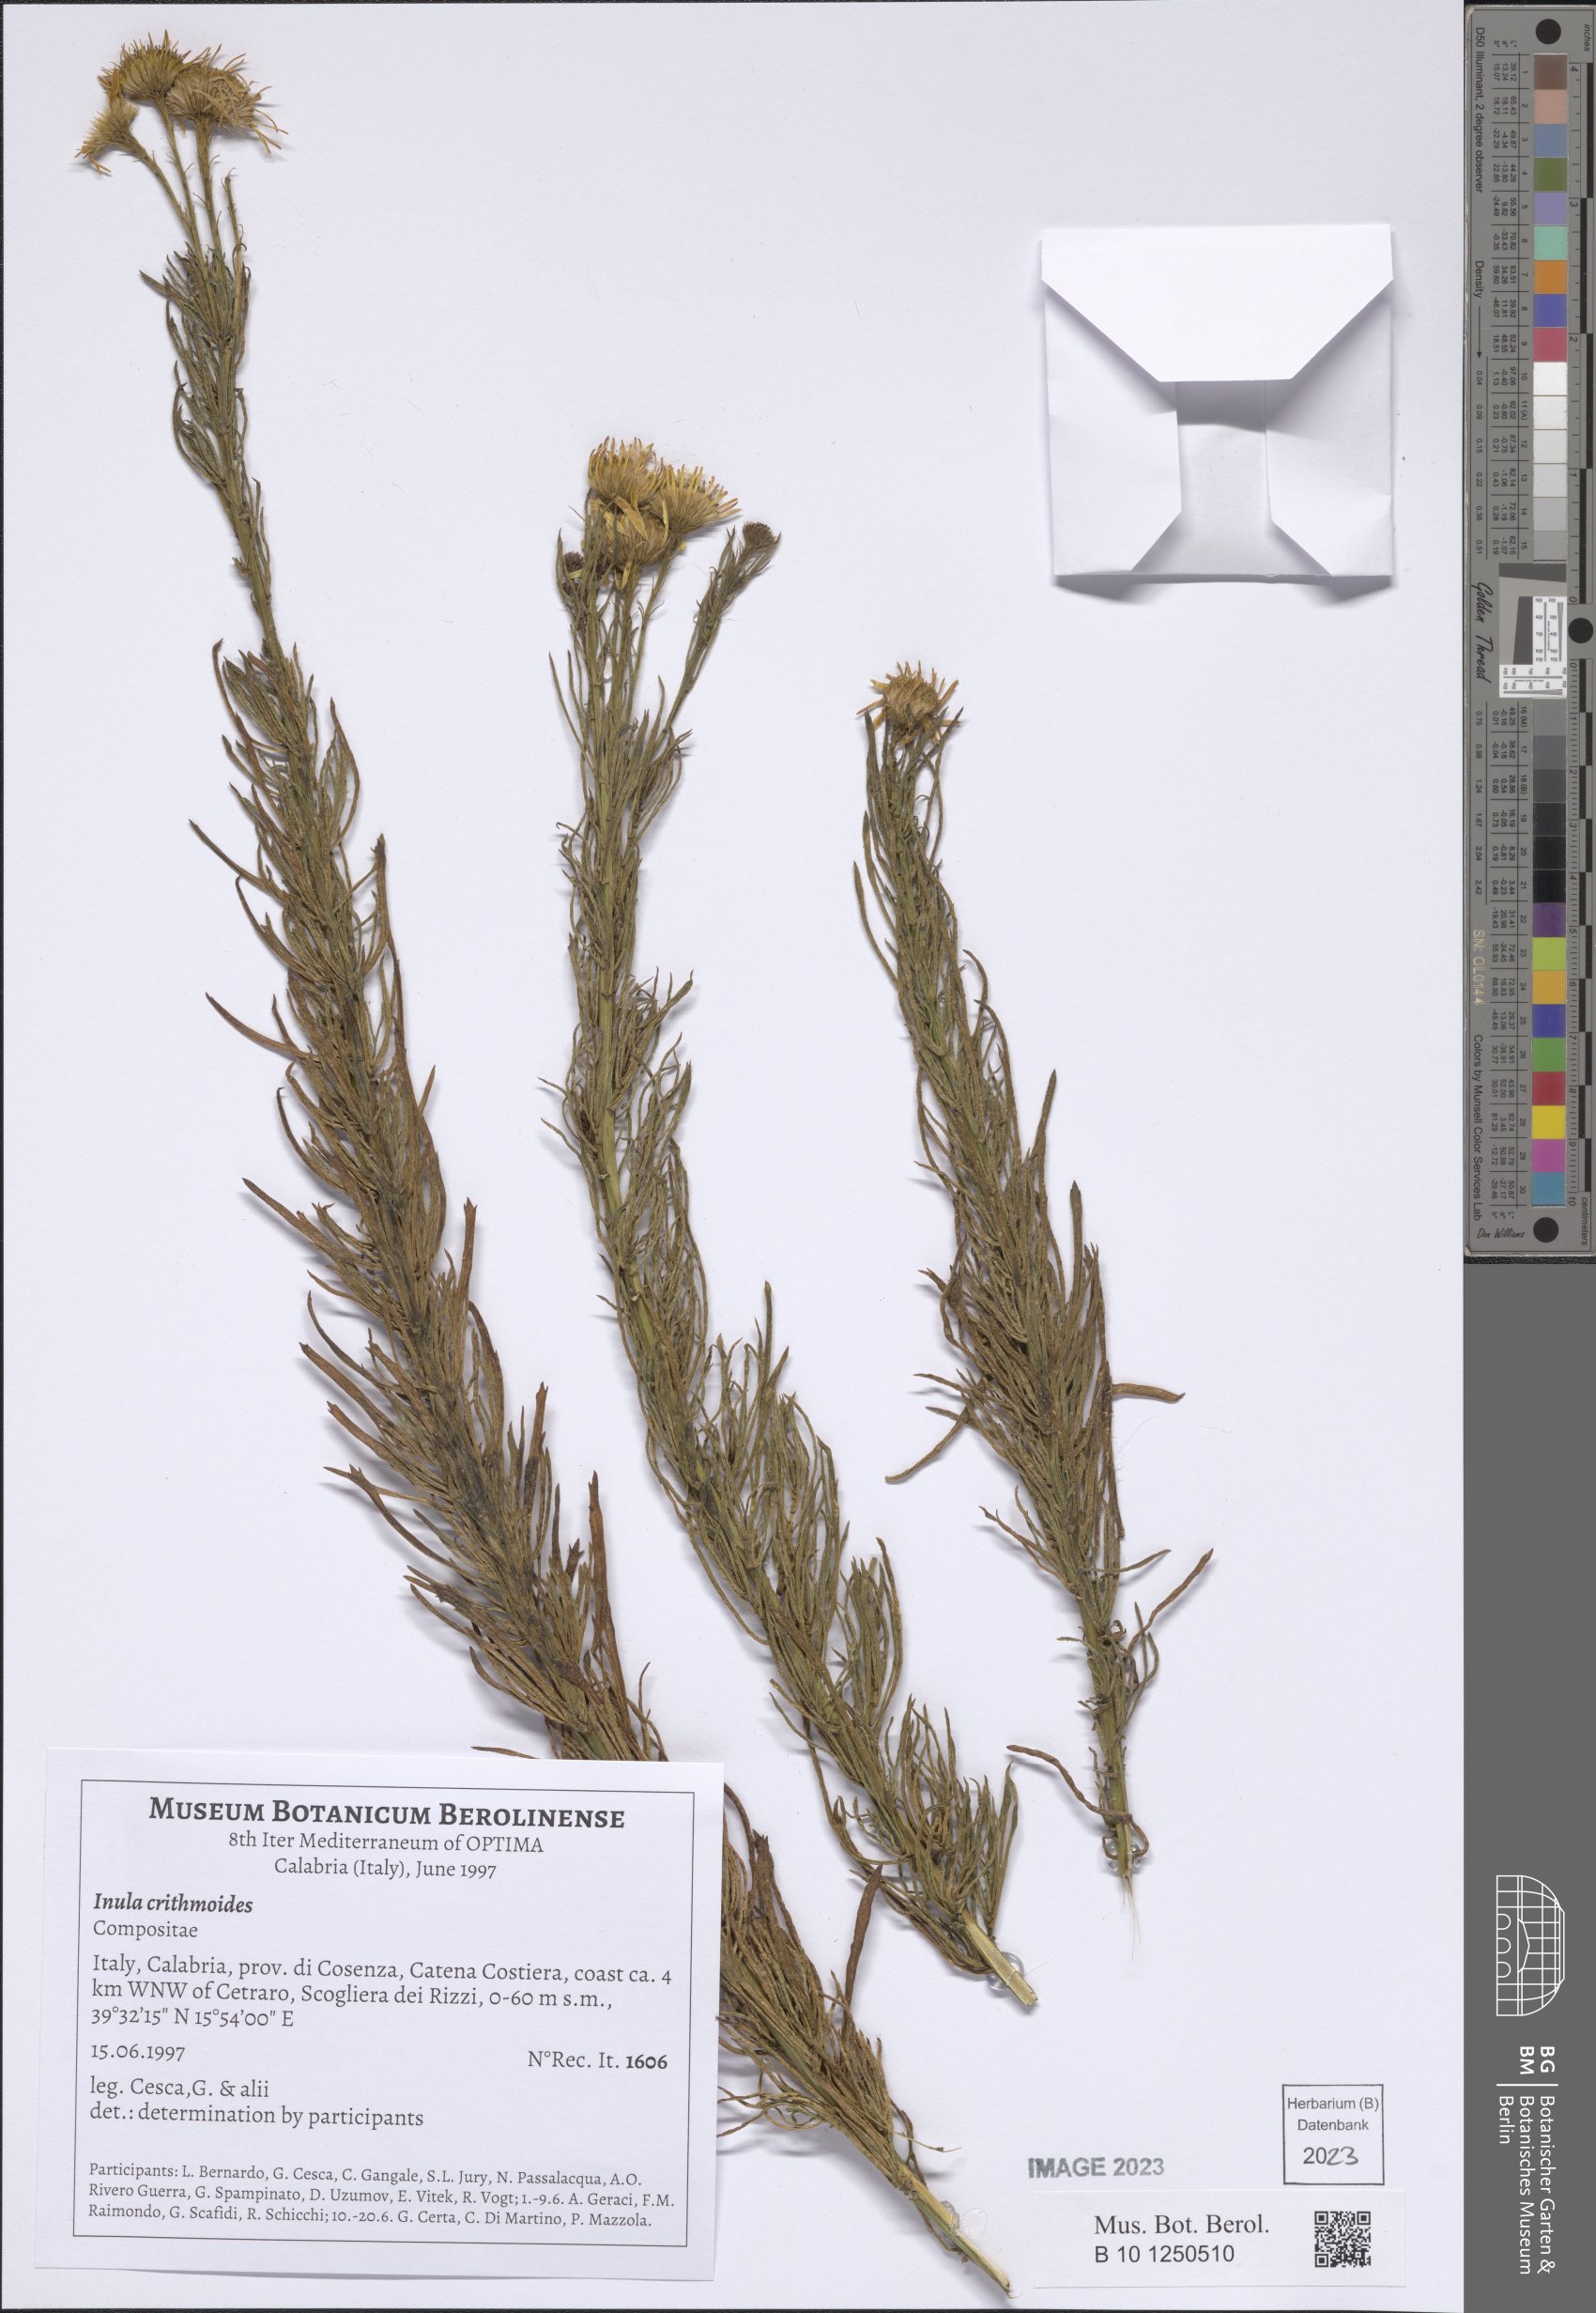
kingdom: Plantae
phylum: Tracheophyta
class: Magnoliopsida
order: Asterales
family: Asteraceae
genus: Limbarda
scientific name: Limbarda crithmoides
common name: Golden samphire
